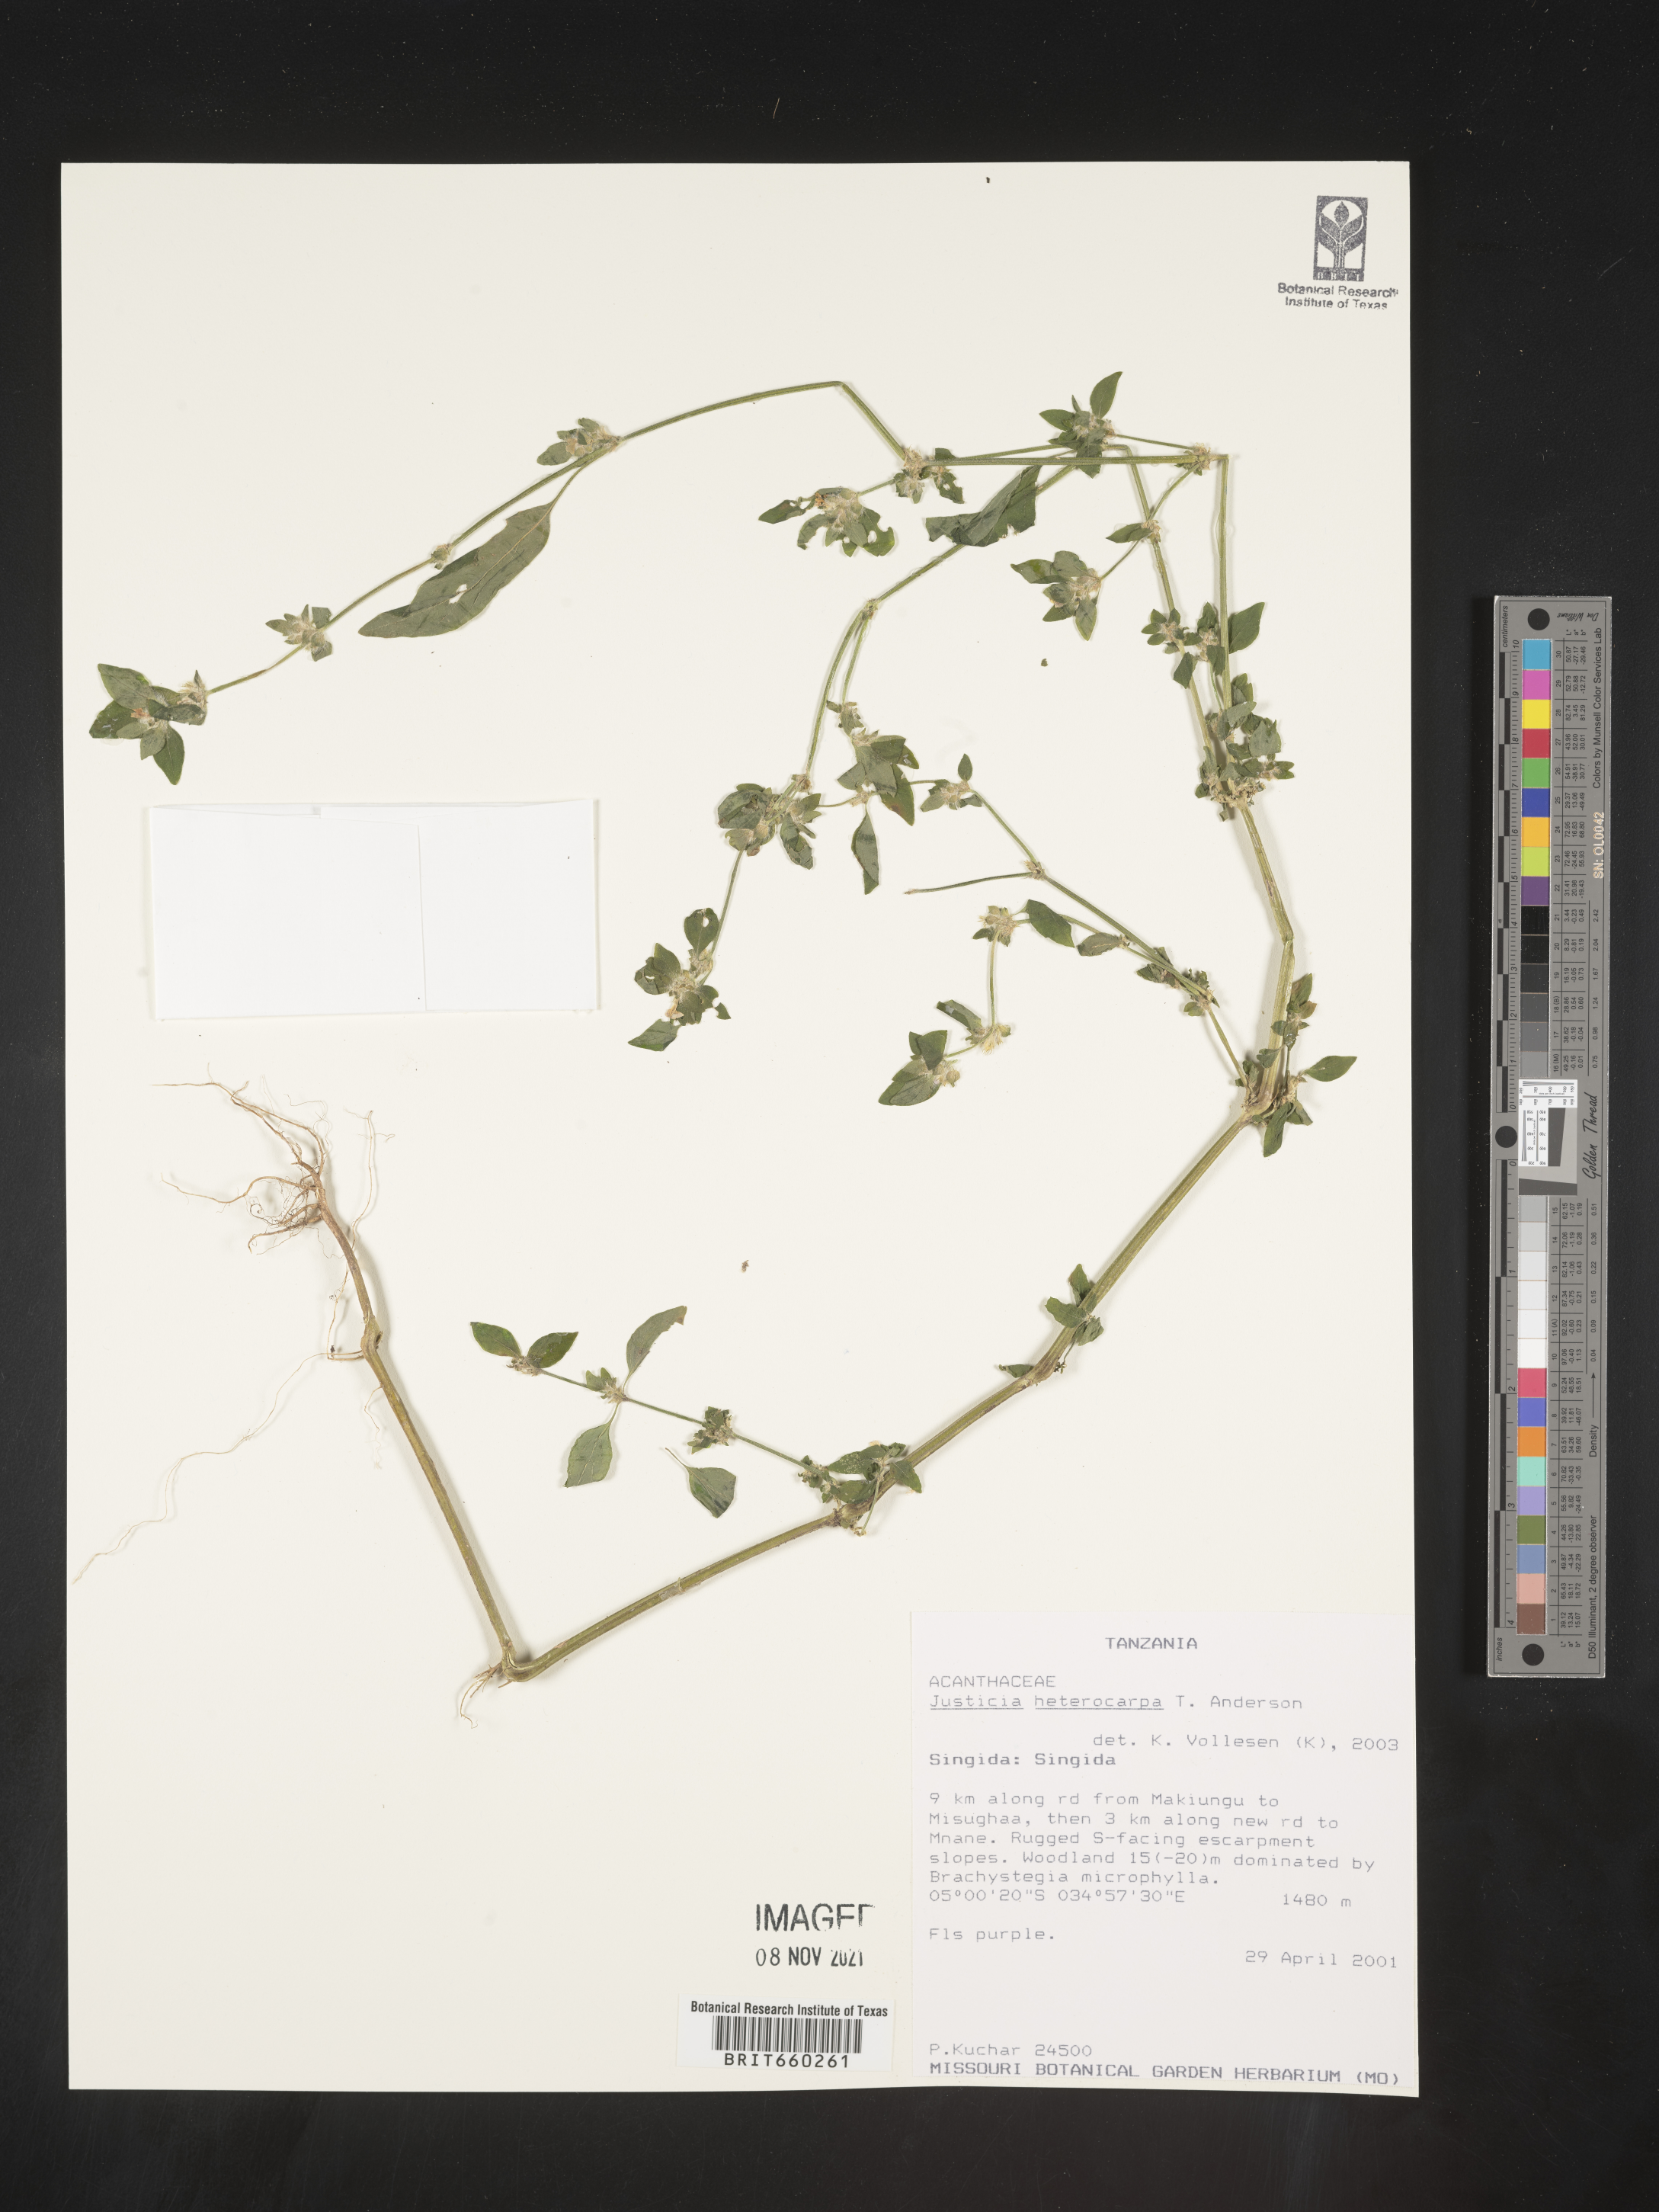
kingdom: Plantae
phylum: Tracheophyta
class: Magnoliopsida
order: Lamiales
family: Acanthaceae
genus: Justicia
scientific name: Justicia
